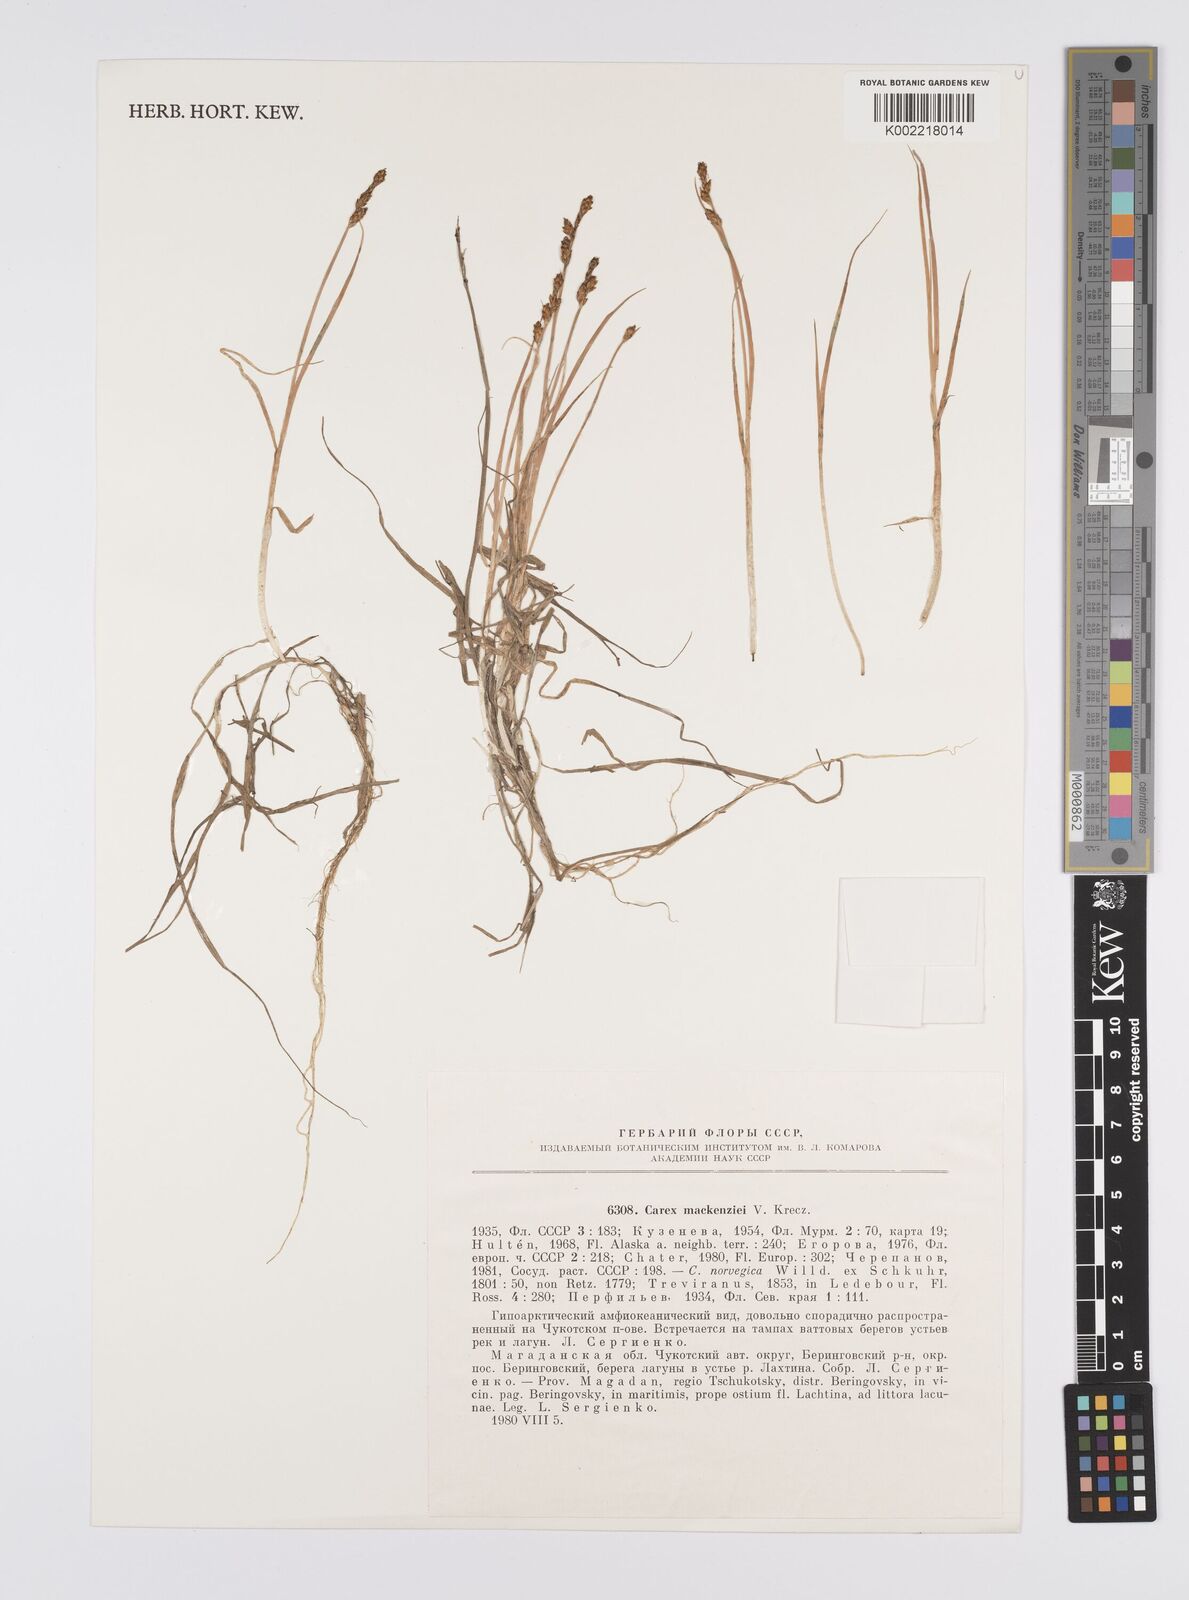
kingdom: Plantae
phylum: Tracheophyta
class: Liliopsida
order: Poales
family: Cyperaceae
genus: Carex
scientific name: Carex mackenziei
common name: Mackenzie's sedge
